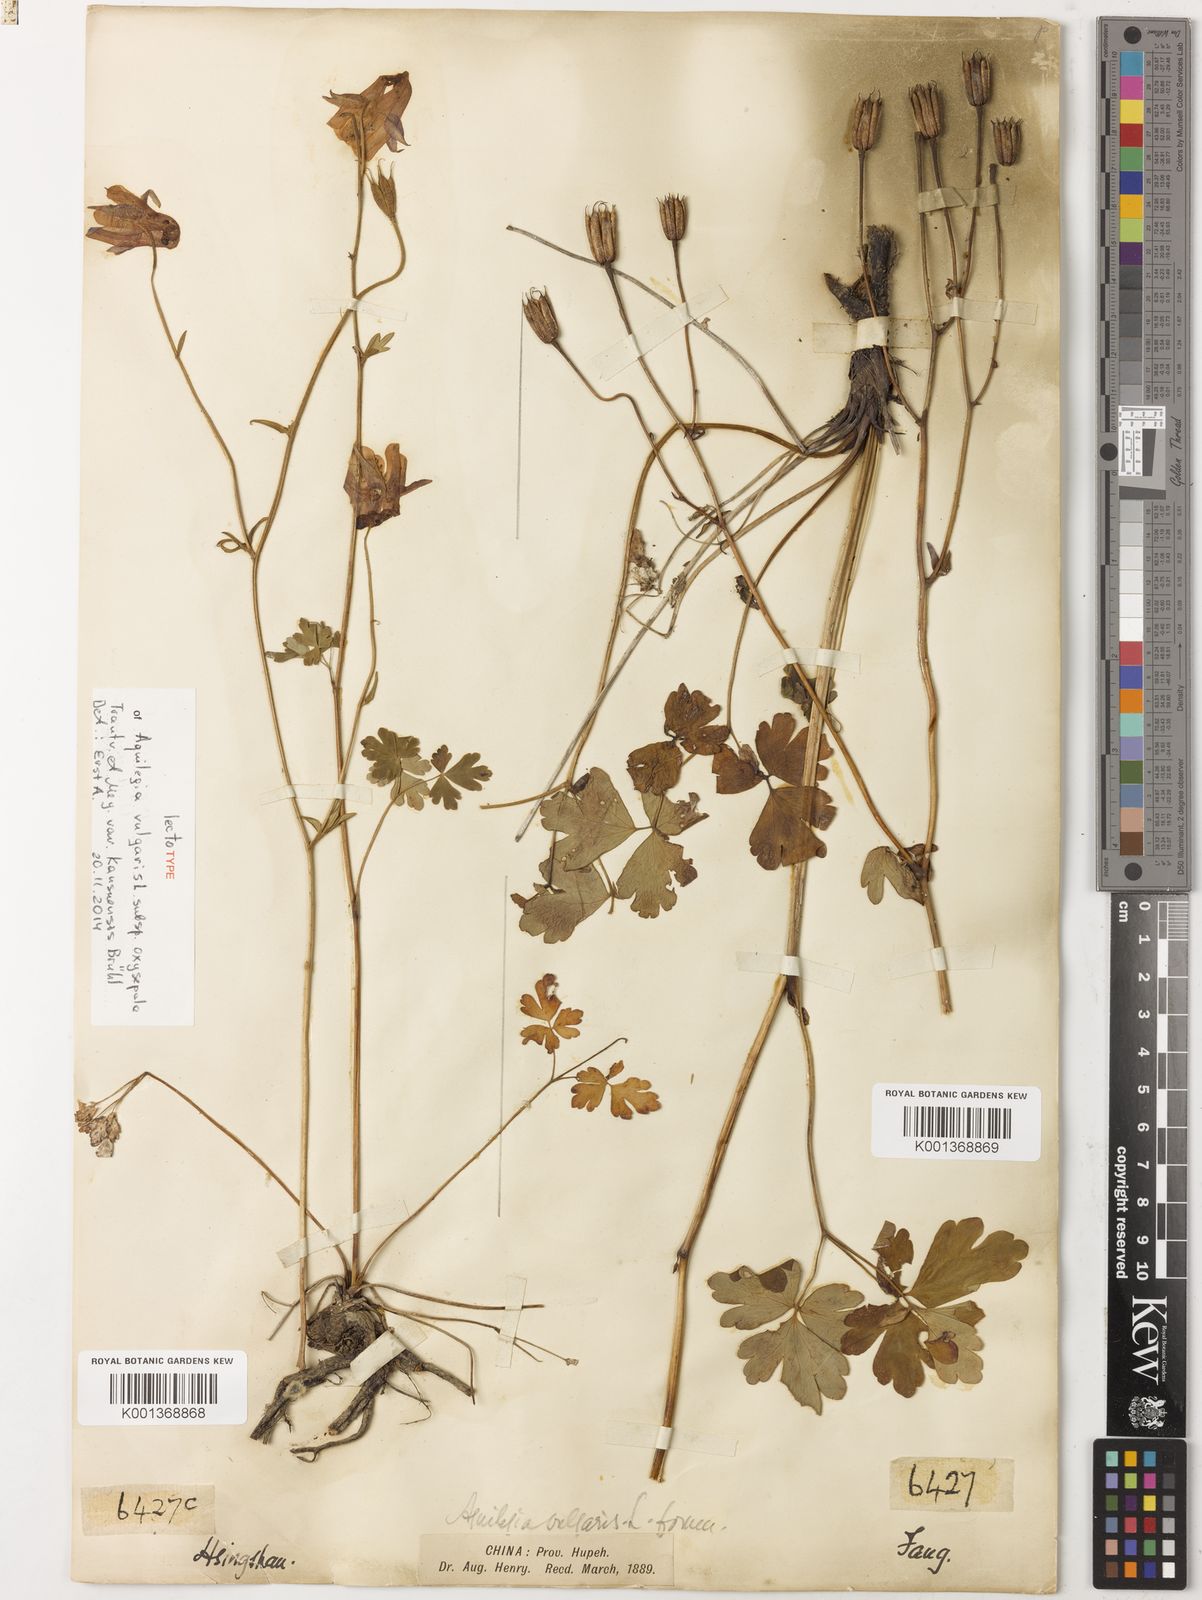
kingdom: Plantae
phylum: Tracheophyta
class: Magnoliopsida
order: Ranunculales
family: Ranunculaceae
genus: Aquilegia
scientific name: Aquilegia vulgaris
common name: Columbine
